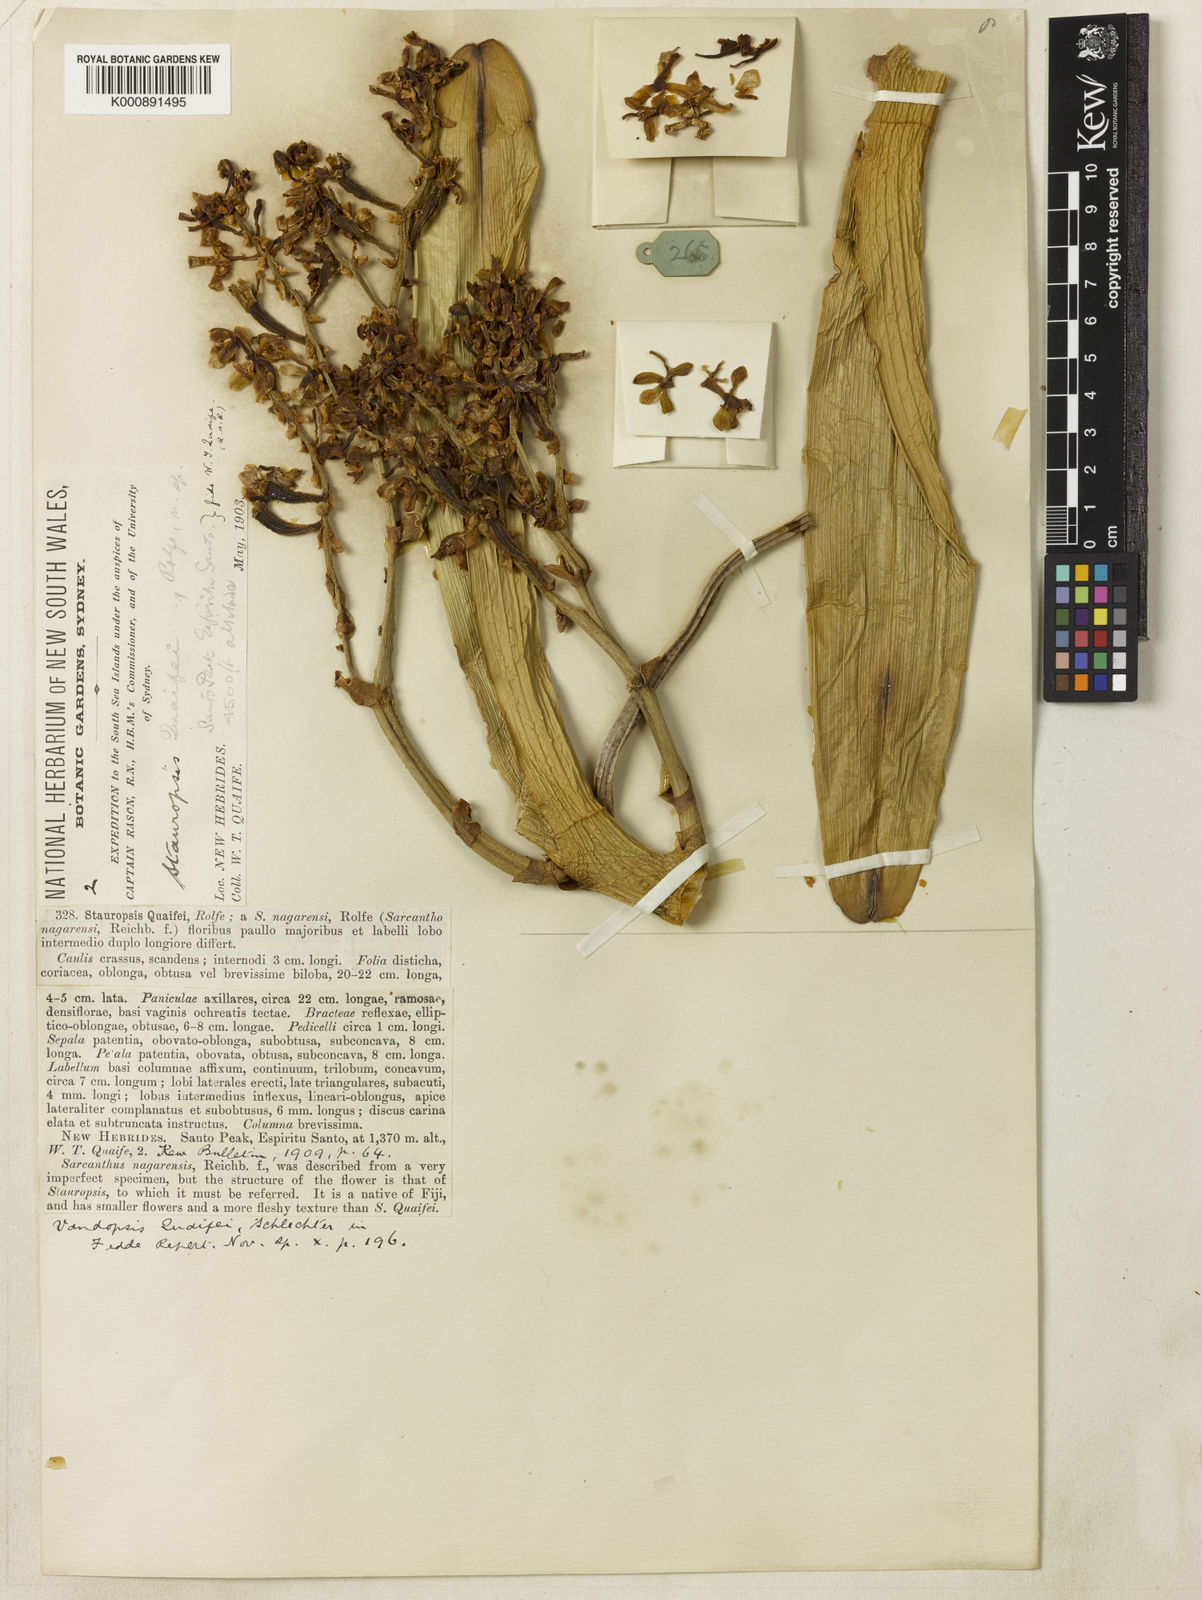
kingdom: Plantae
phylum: Tracheophyta
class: Liliopsida
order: Asparagales
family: Orchidaceae
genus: Sarcanthopsis
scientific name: Sarcanthopsis quaifei
